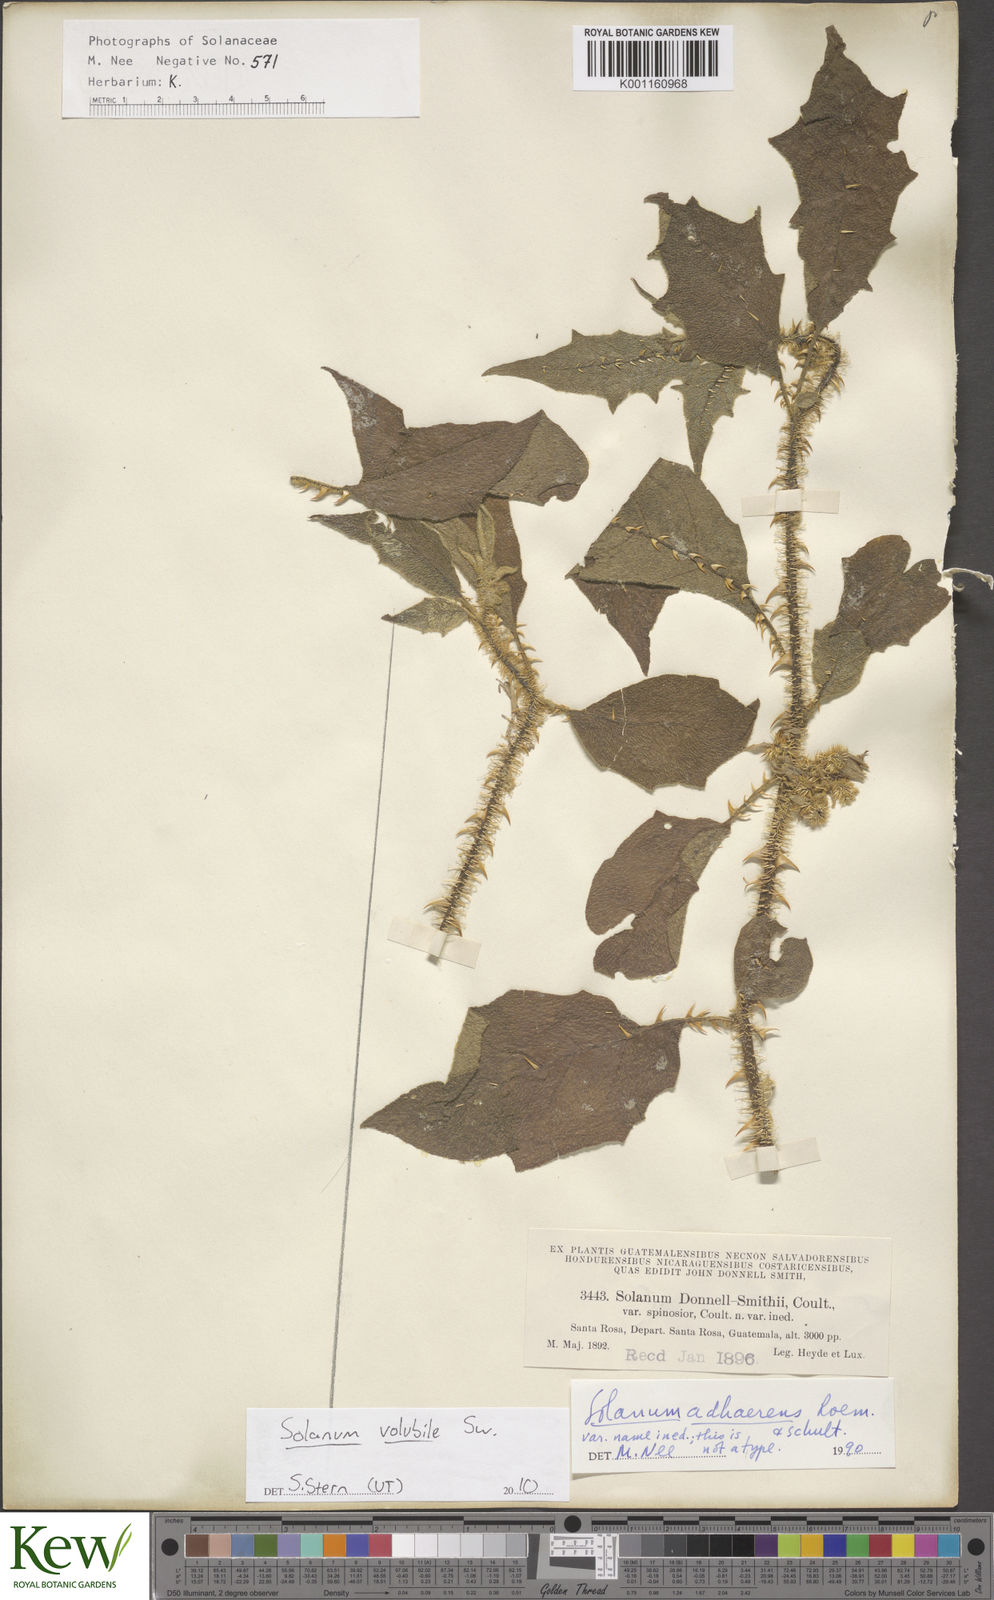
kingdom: Plantae
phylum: Tracheophyta
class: Magnoliopsida
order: Solanales
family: Solanaceae
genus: Solanum
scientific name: Solanum volubile
